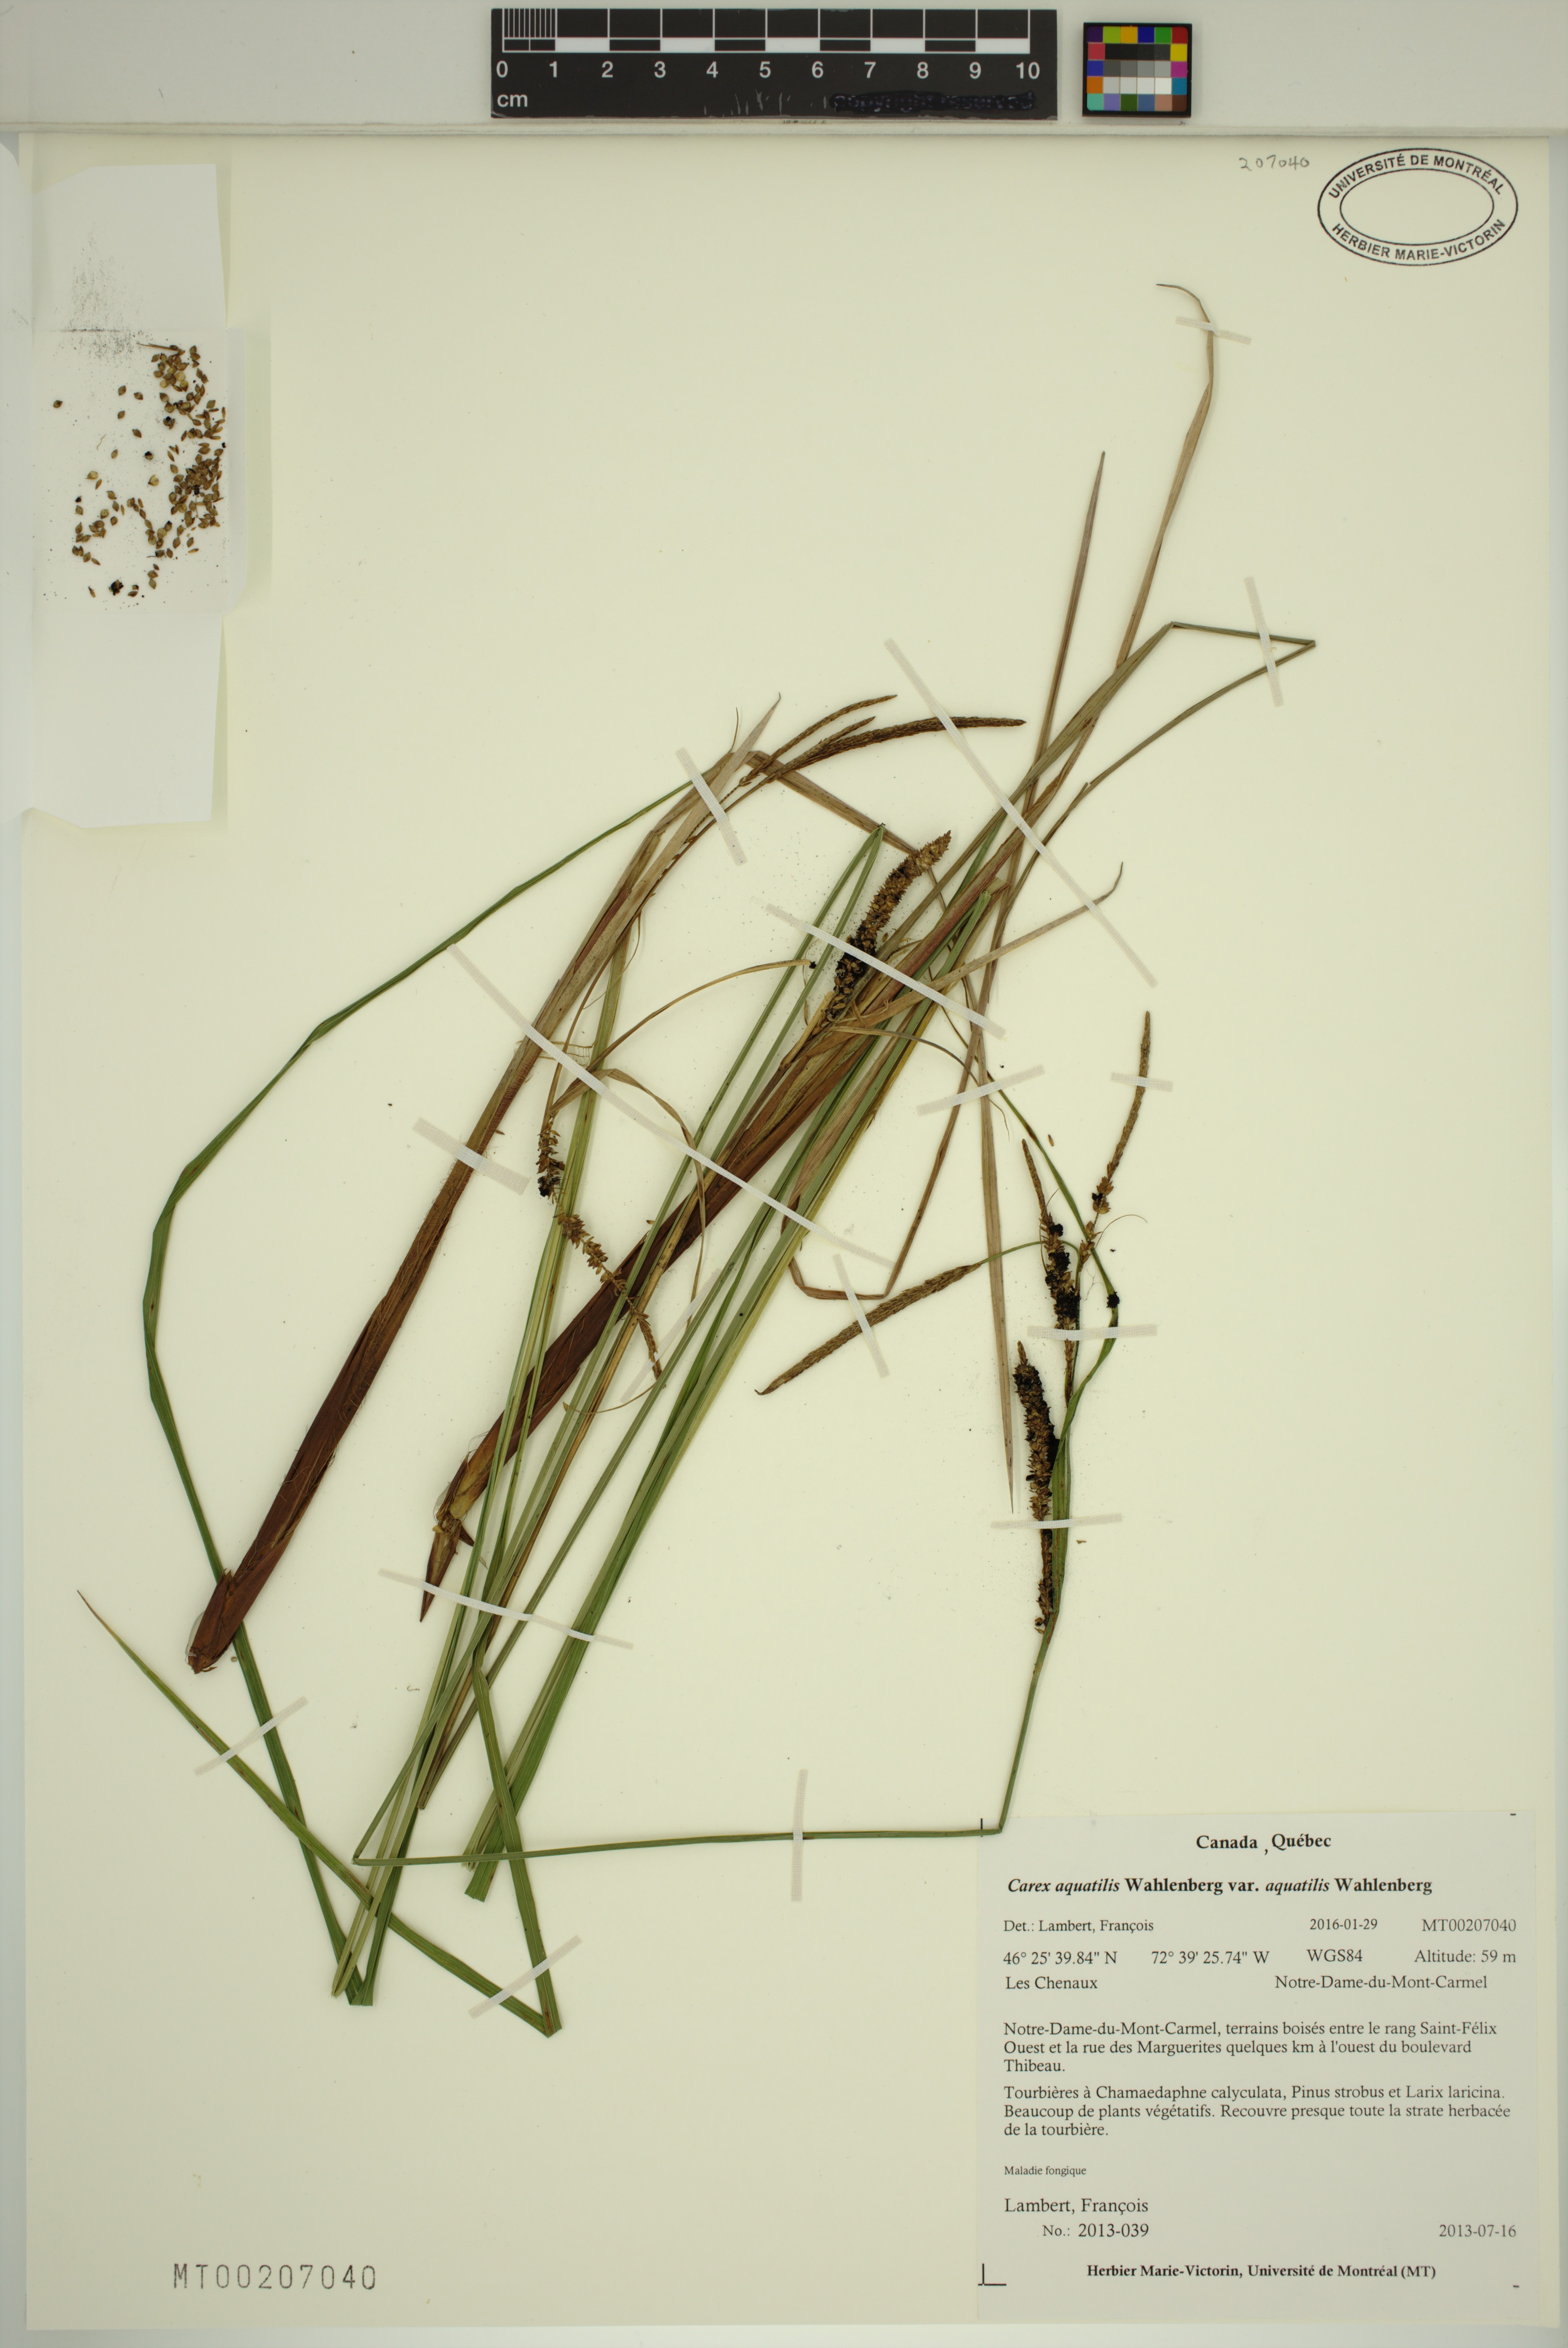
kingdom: Plantae
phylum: Tracheophyta
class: Liliopsida
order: Poales
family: Cyperaceae
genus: Carex
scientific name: Carex aquatilis
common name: Water sedge
